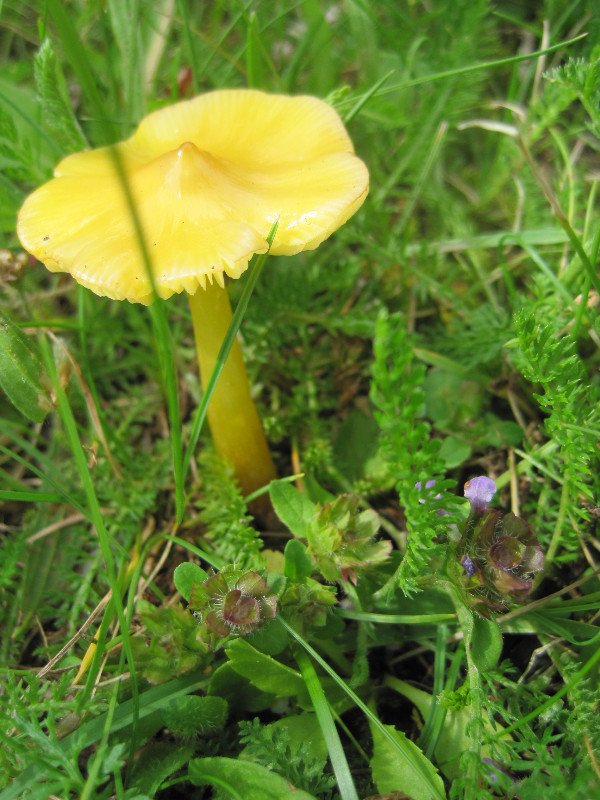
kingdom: Fungi
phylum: Basidiomycota
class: Agaricomycetes
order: Agaricales
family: Hygrophoraceae
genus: Hygrocybe
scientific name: Hygrocybe acutoconica
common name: spidspuklet vokshat
